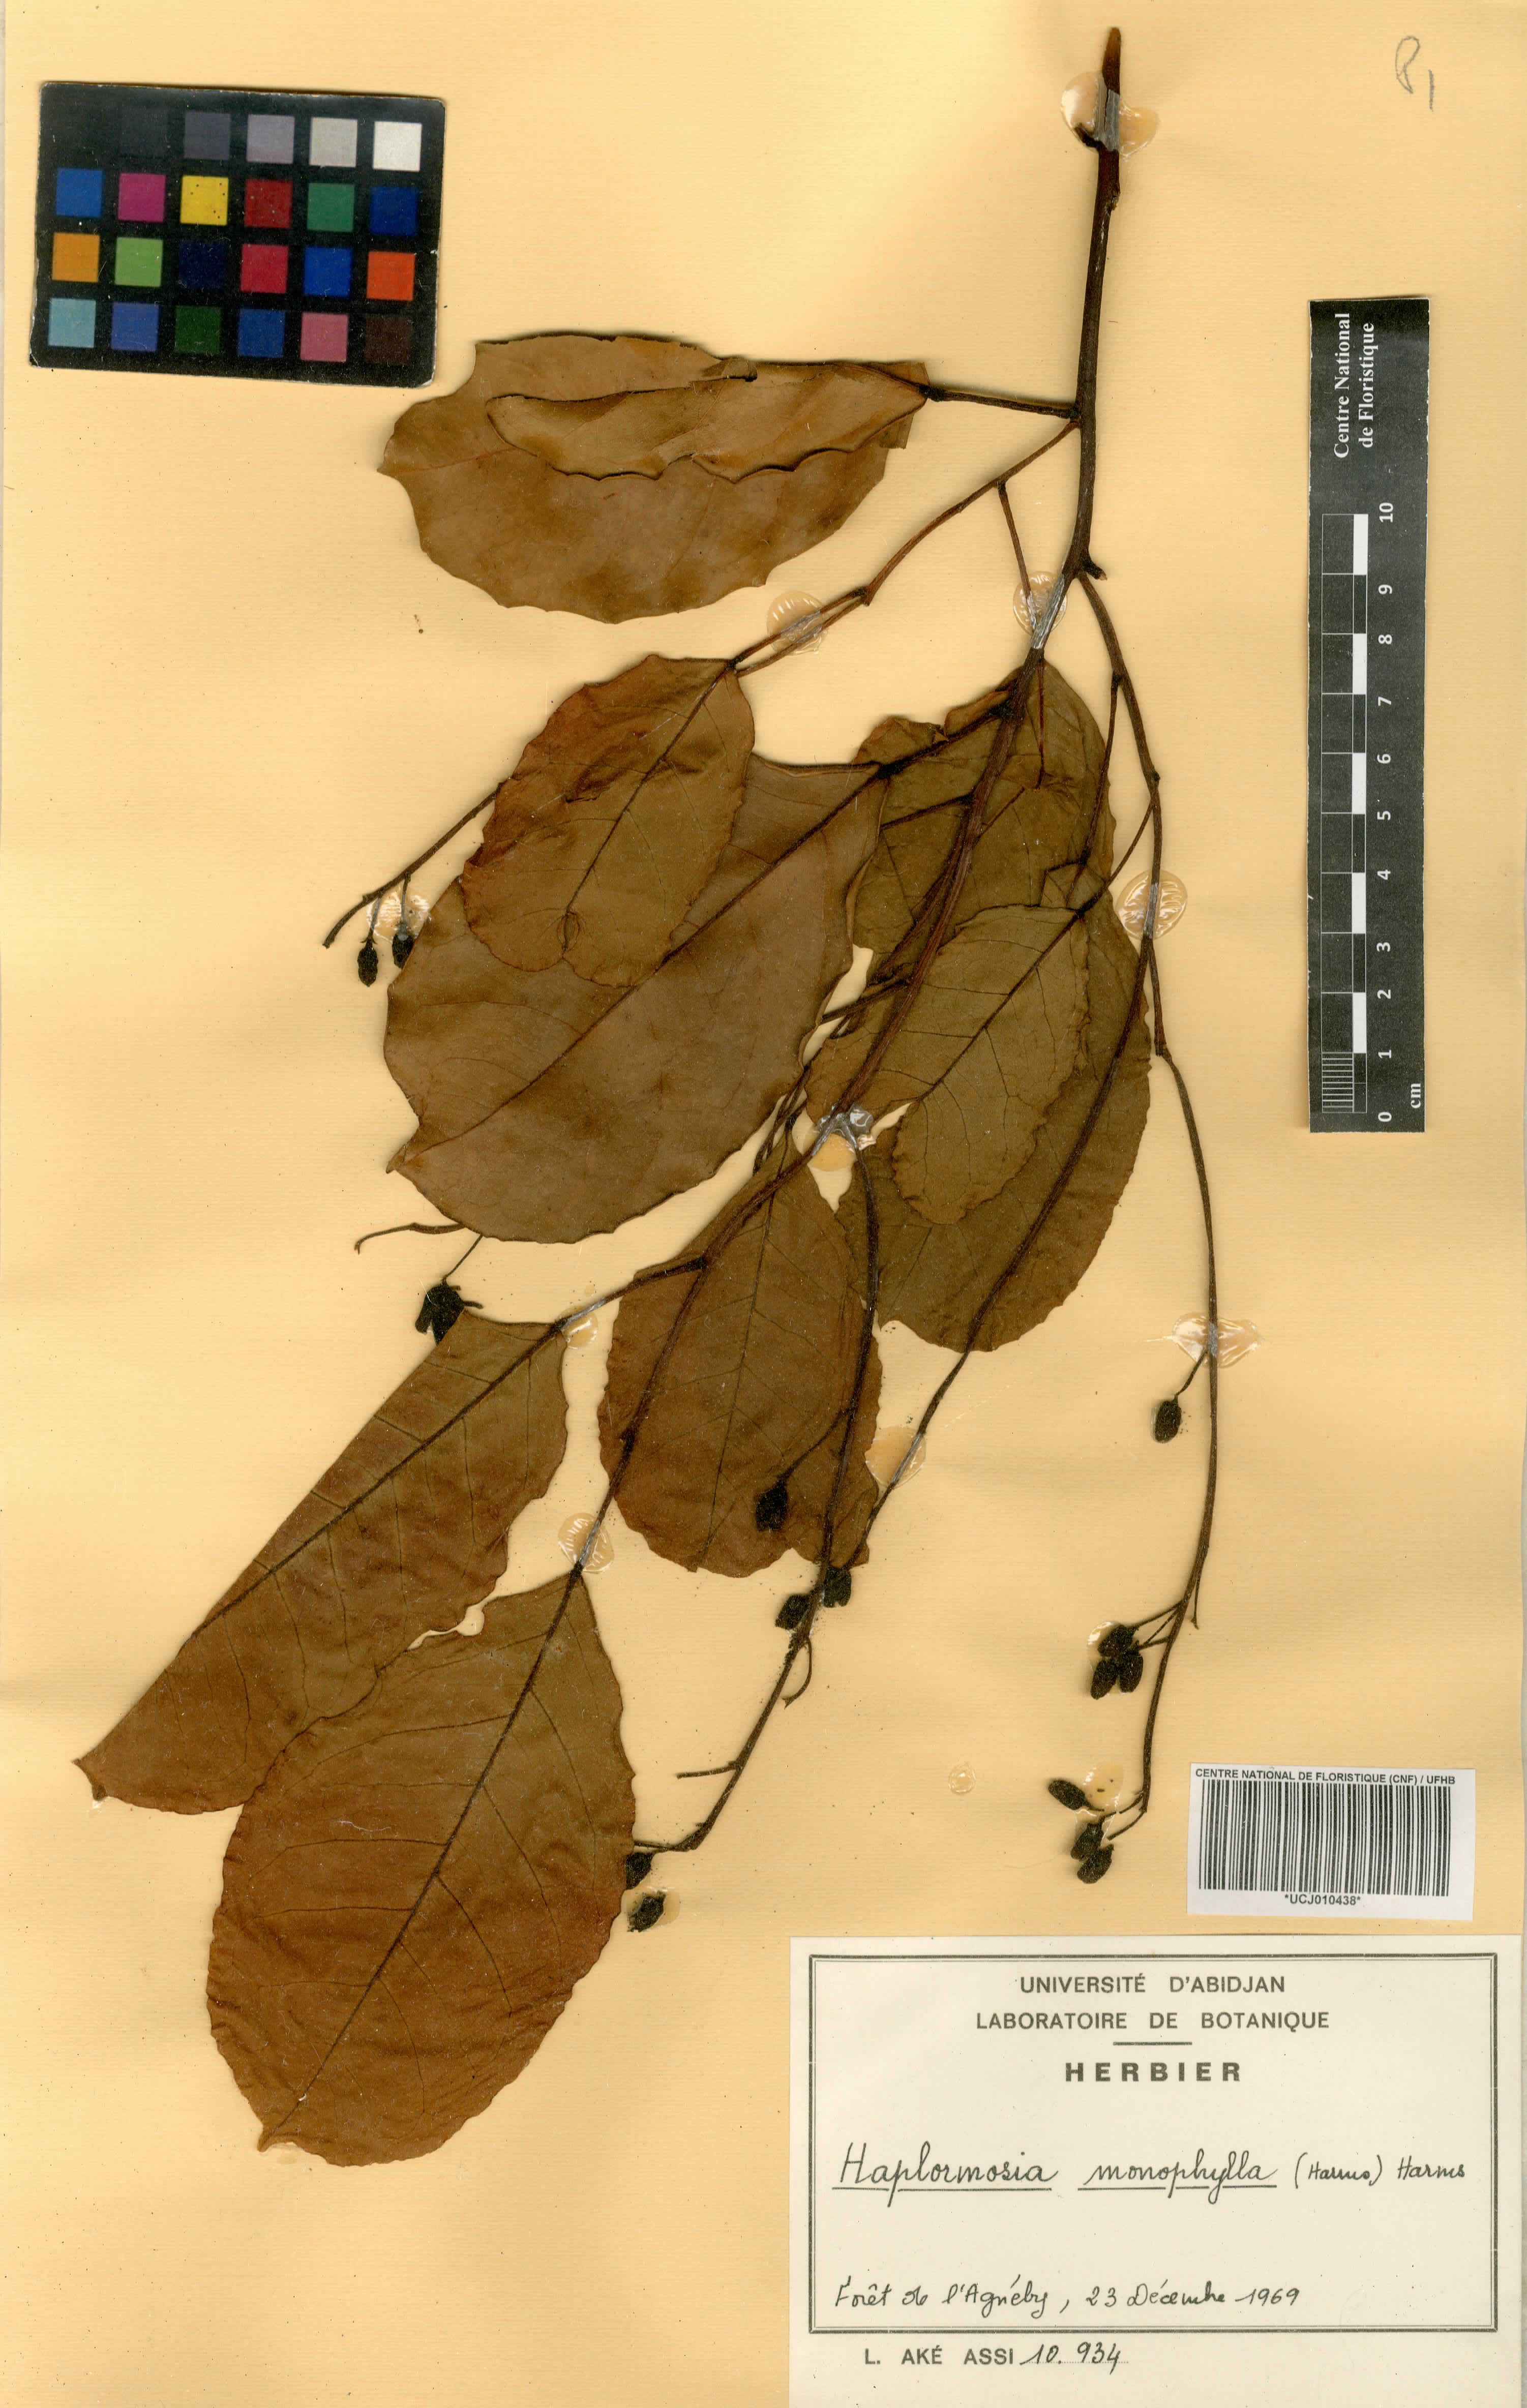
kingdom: Plantae
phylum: Tracheophyta
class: Magnoliopsida
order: Fabales
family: Fabaceae
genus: Haplormosia
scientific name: Haplormosia monophylla
